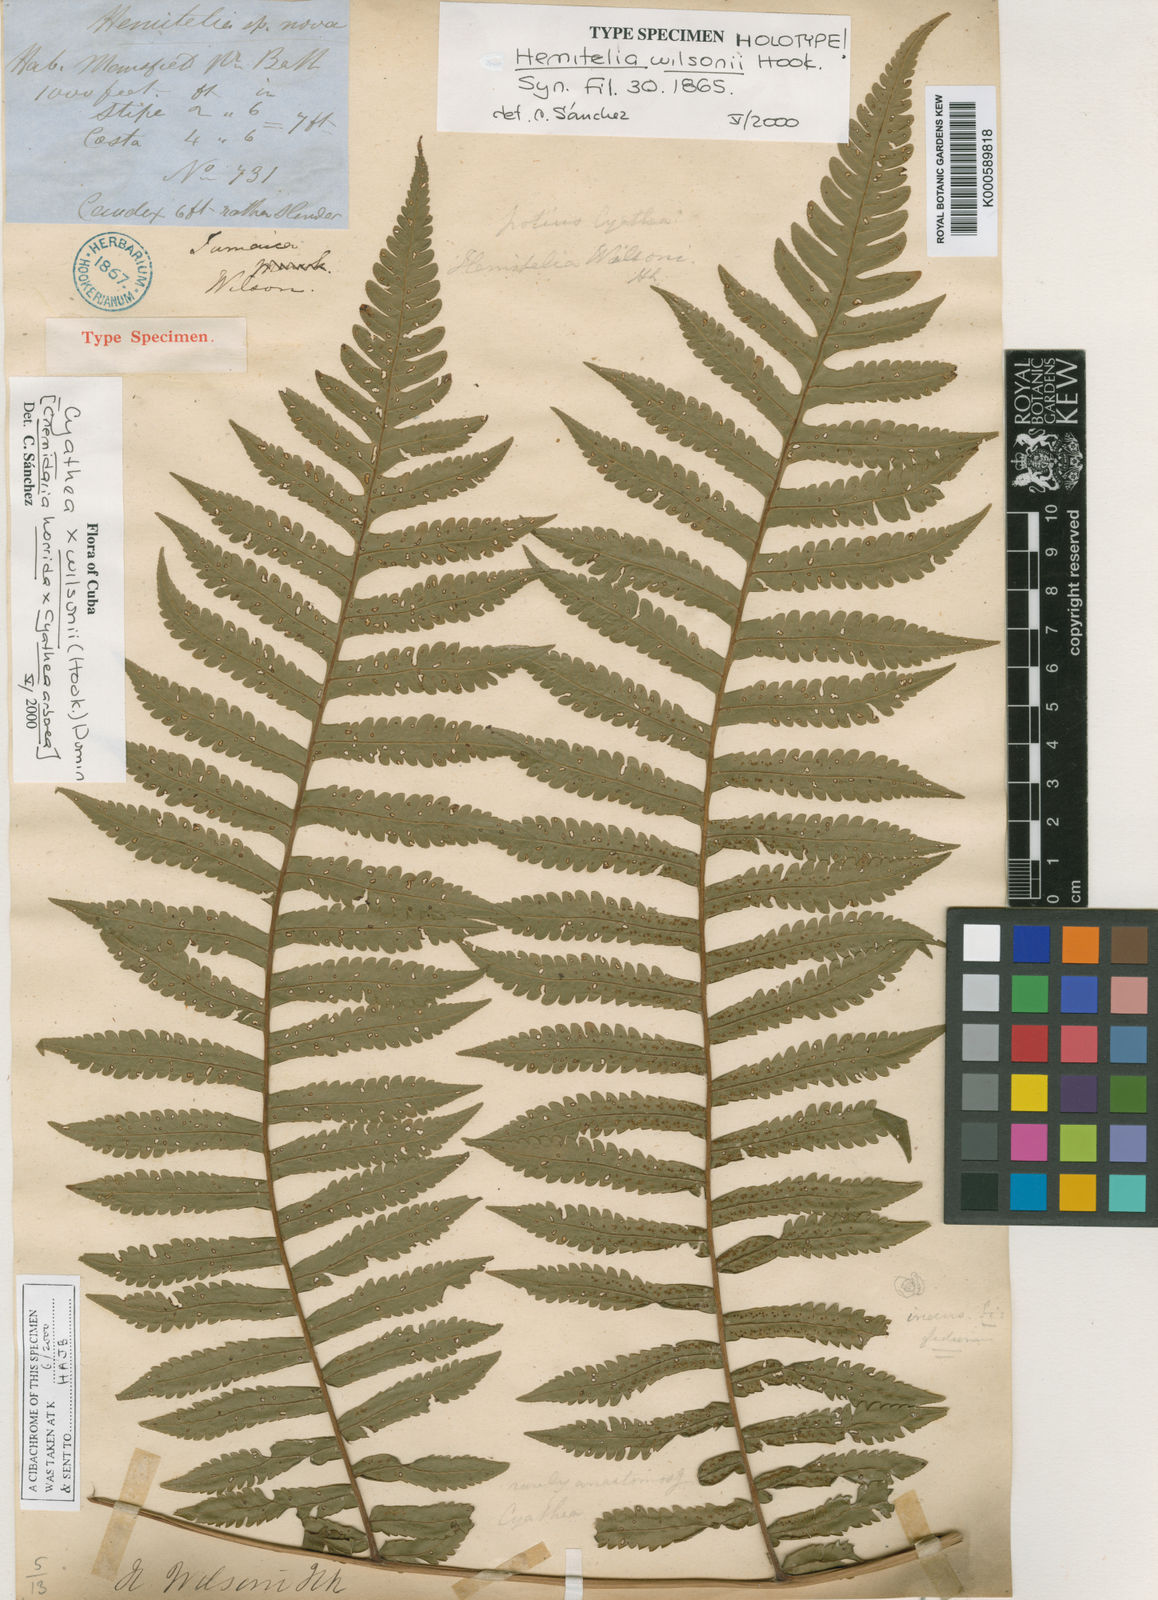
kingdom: Plantae
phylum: Tracheophyta
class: Polypodiopsida
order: Cyatheales
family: Cyatheaceae
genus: Cyathea
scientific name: Cyathea wilsonii
